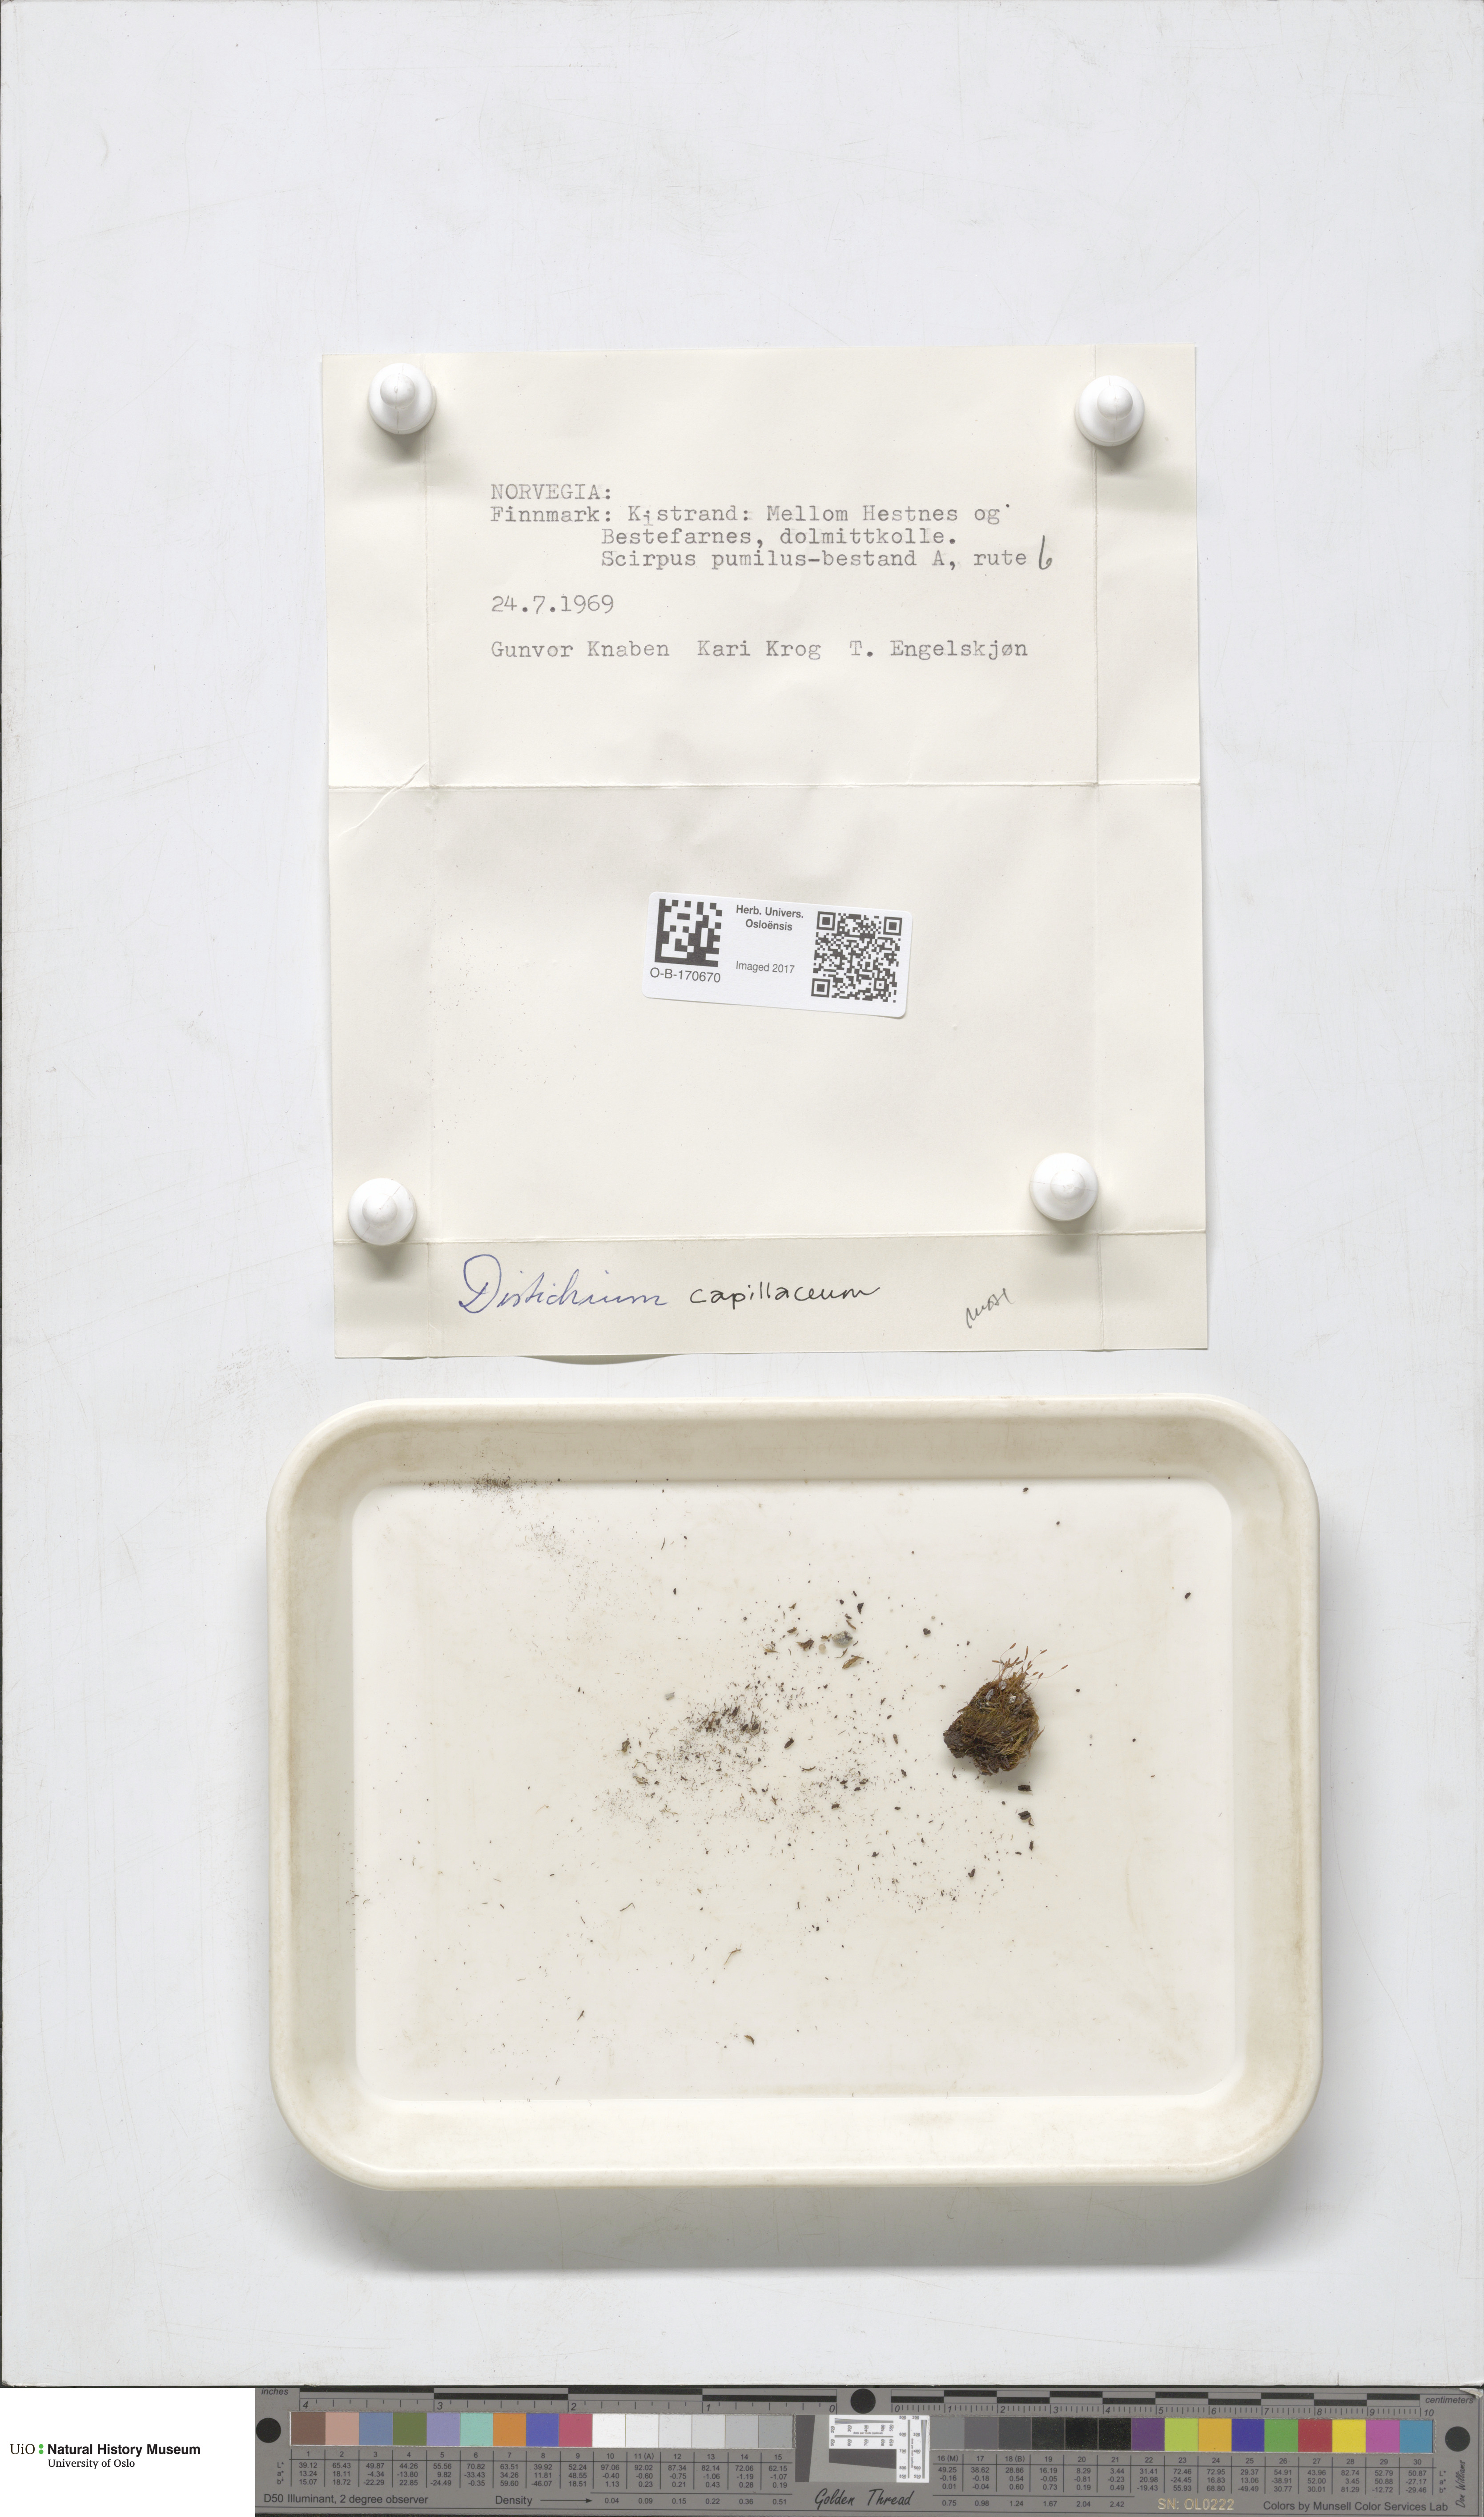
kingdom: Plantae
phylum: Bryophyta
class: Bryopsida
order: Scouleriales
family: Distichiaceae
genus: Distichium
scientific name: Distichium capillaceum
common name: Erect-fruited iris moss
